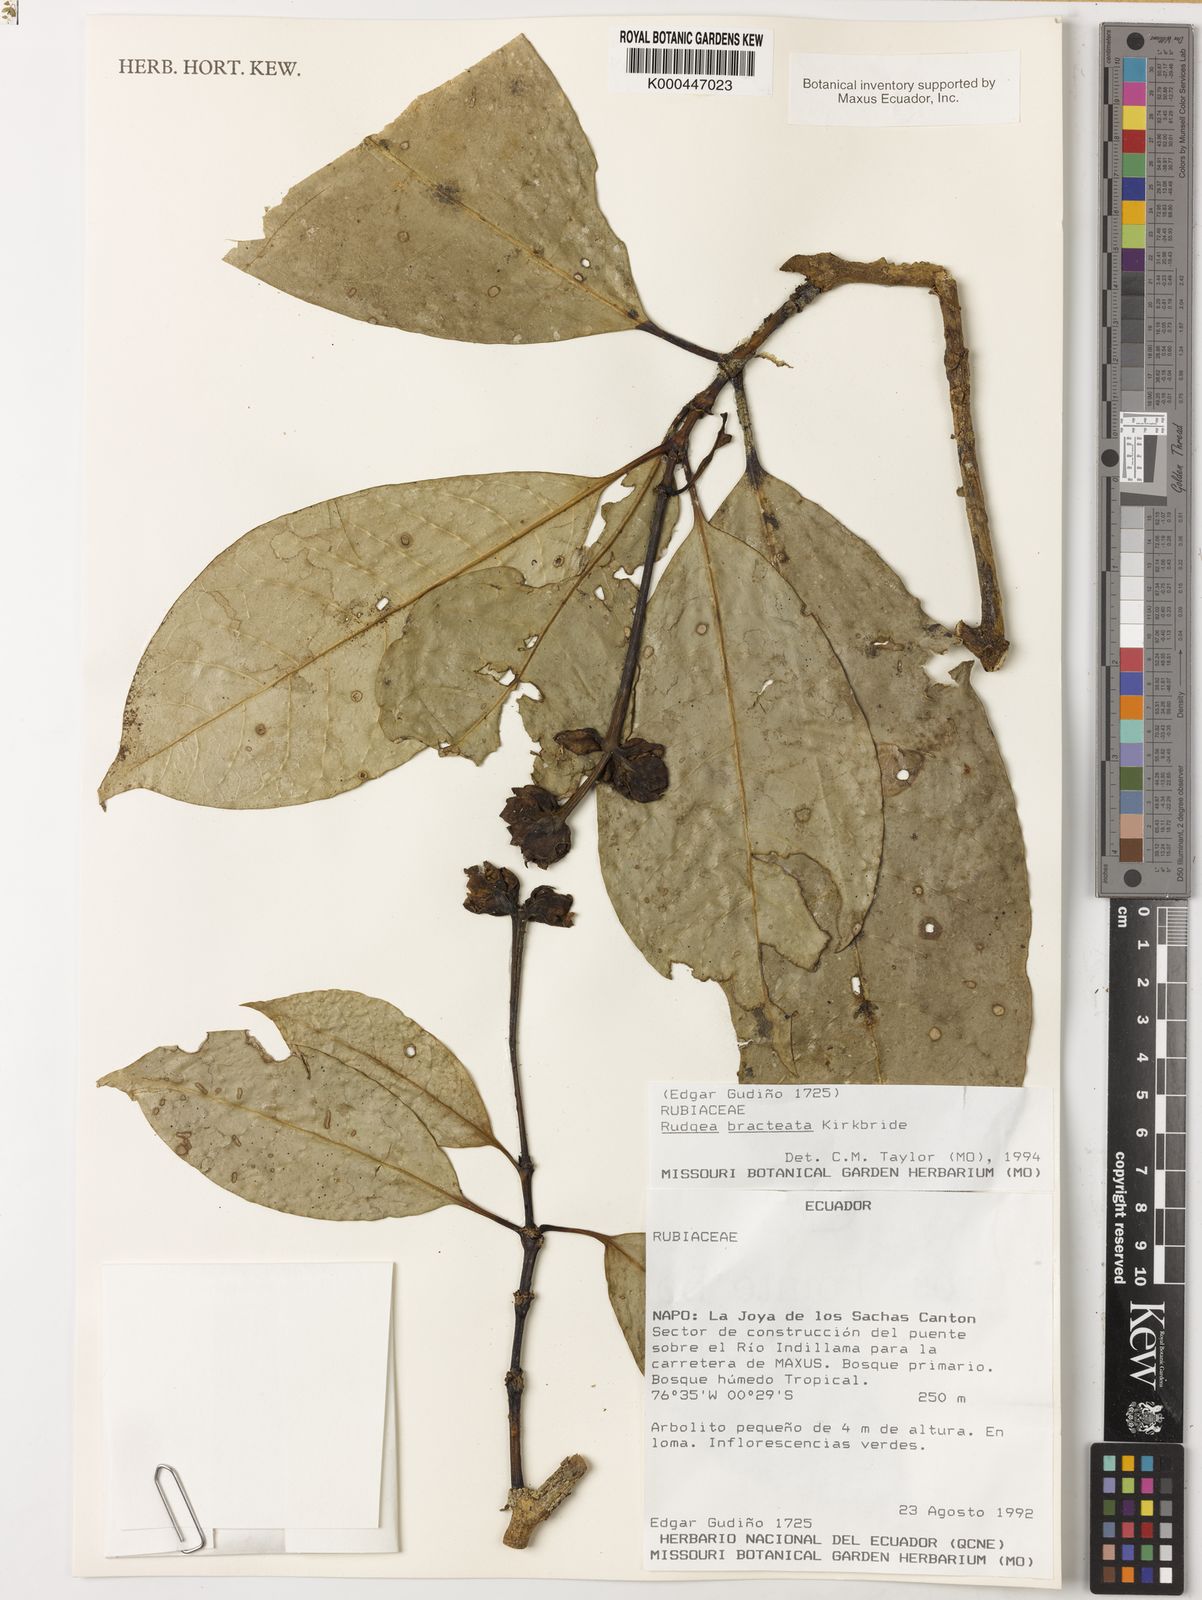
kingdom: Plantae
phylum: Tracheophyta
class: Magnoliopsida
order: Gentianales
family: Rubiaceae
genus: Rudgea
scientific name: Rudgea bracteata
